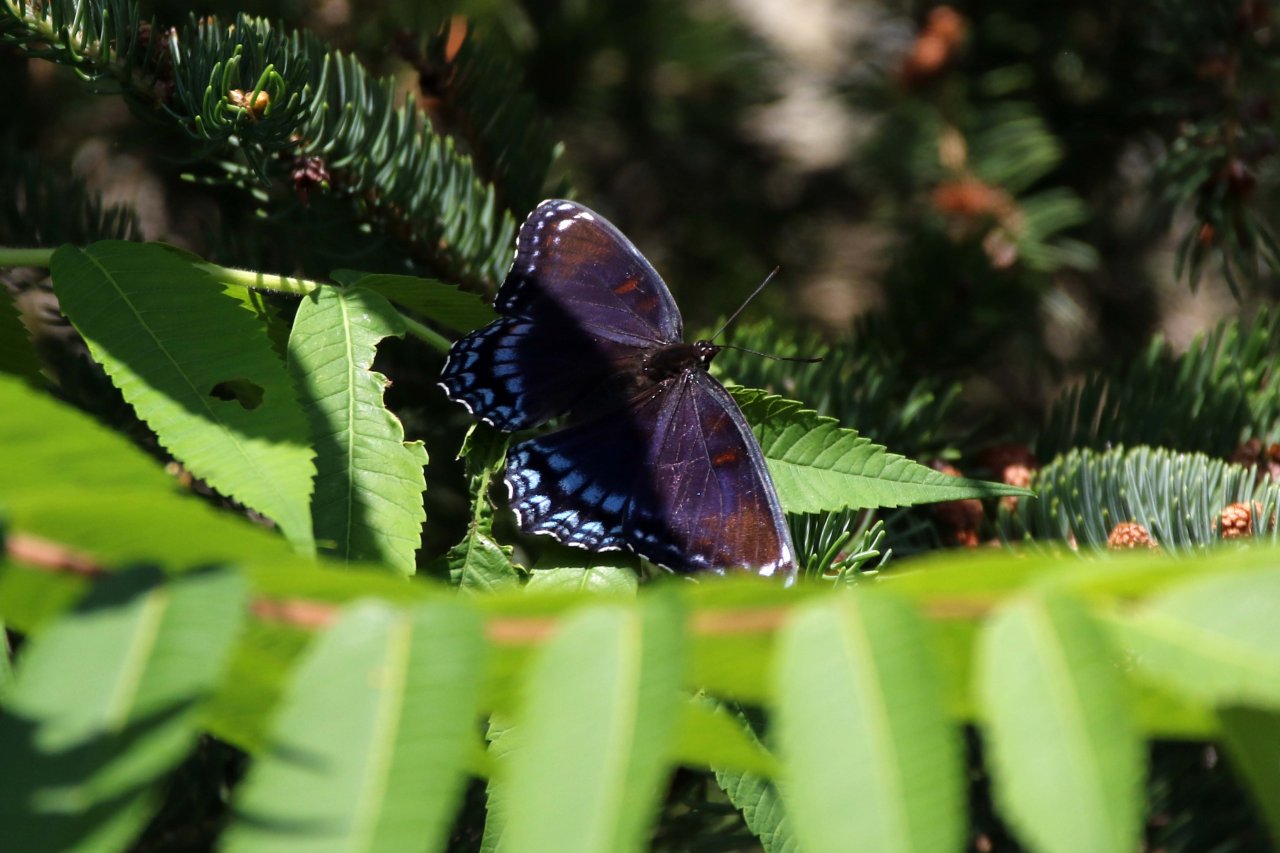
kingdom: Animalia
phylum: Arthropoda
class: Insecta
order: Lepidoptera
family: Nymphalidae
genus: Limenitis
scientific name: Limenitis astyanax
